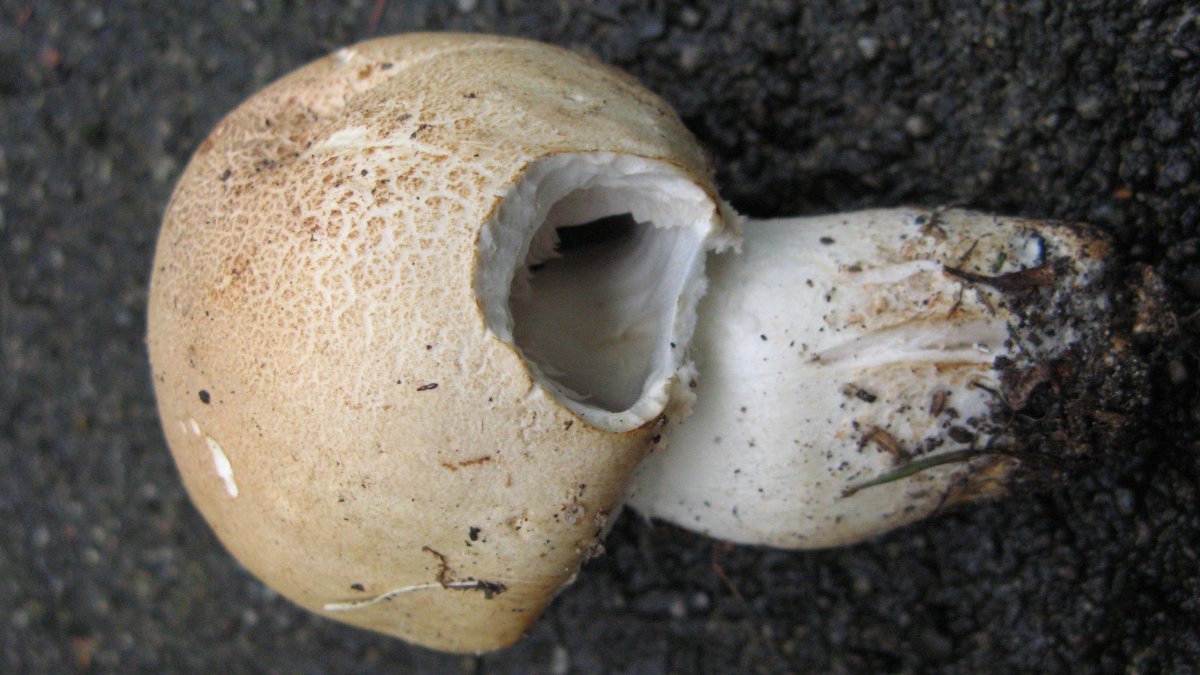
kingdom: Fungi
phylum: Basidiomycota
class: Agaricomycetes
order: Agaricales
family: Agaricaceae
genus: Agaricus
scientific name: Agaricus arvensis
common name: ager-champignon
